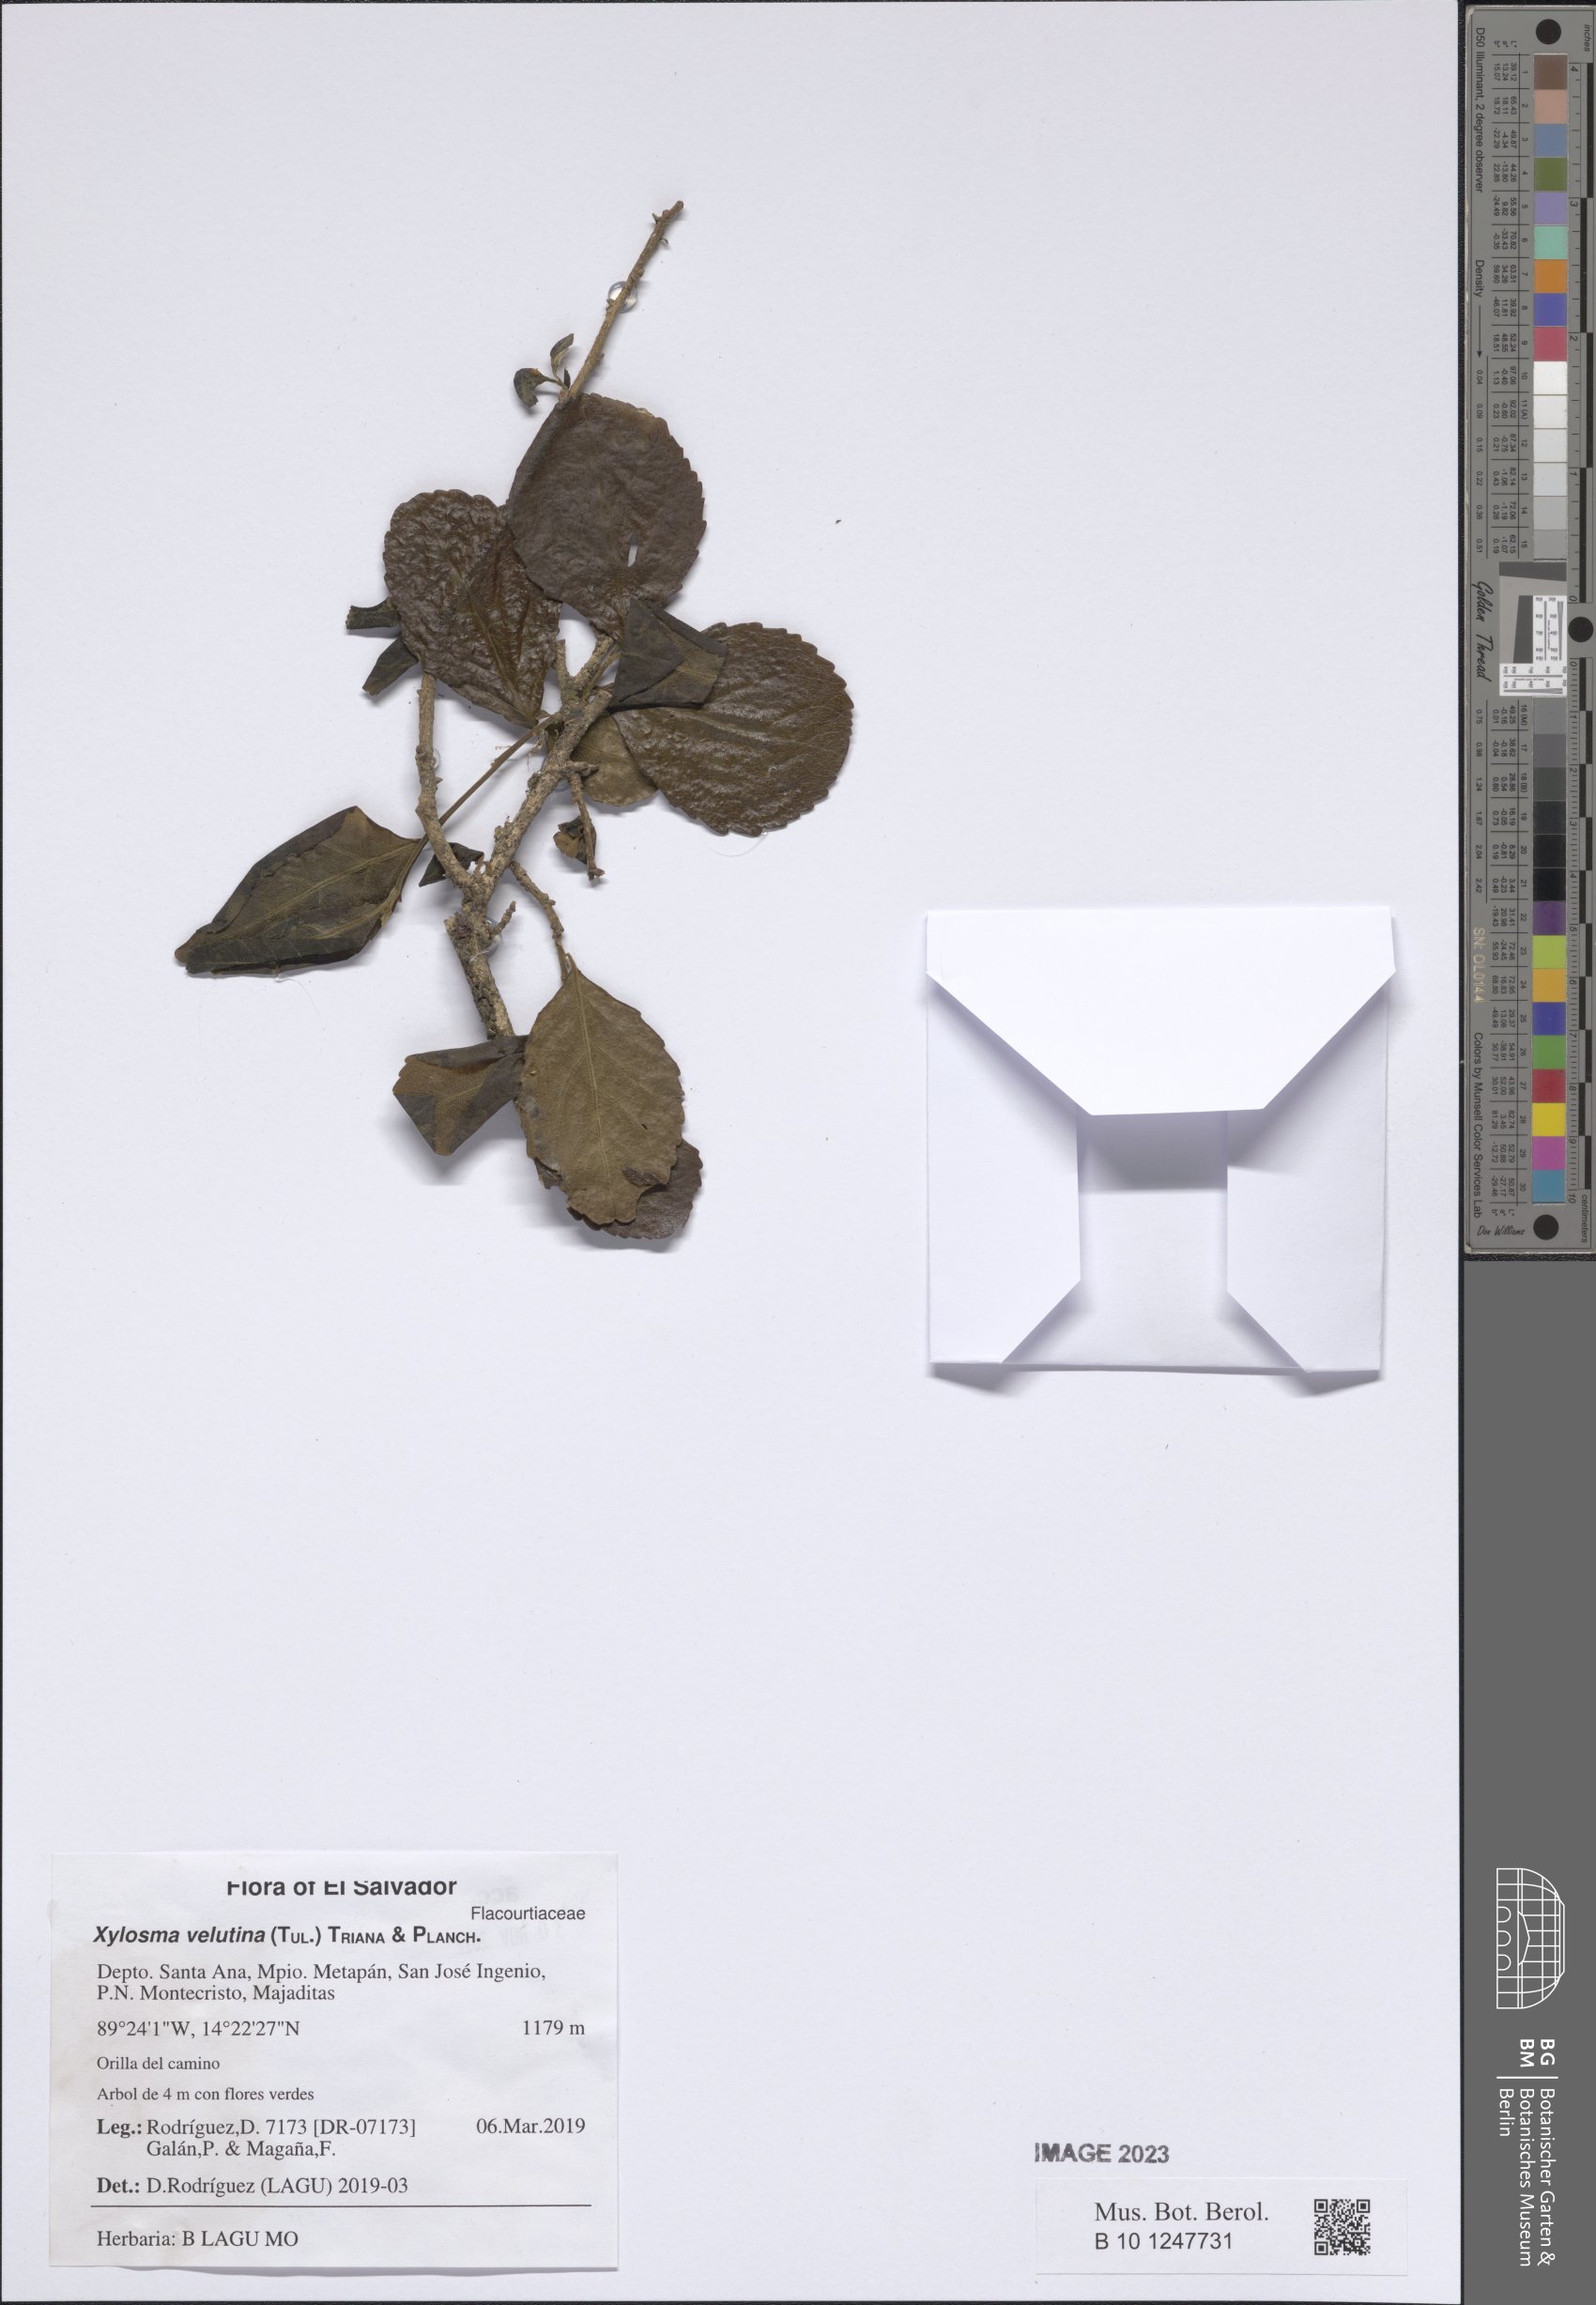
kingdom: Plantae
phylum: Tracheophyta
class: Magnoliopsida
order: Malpighiales
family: Salicaceae
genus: Xylosma
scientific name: Xylosma velutina
